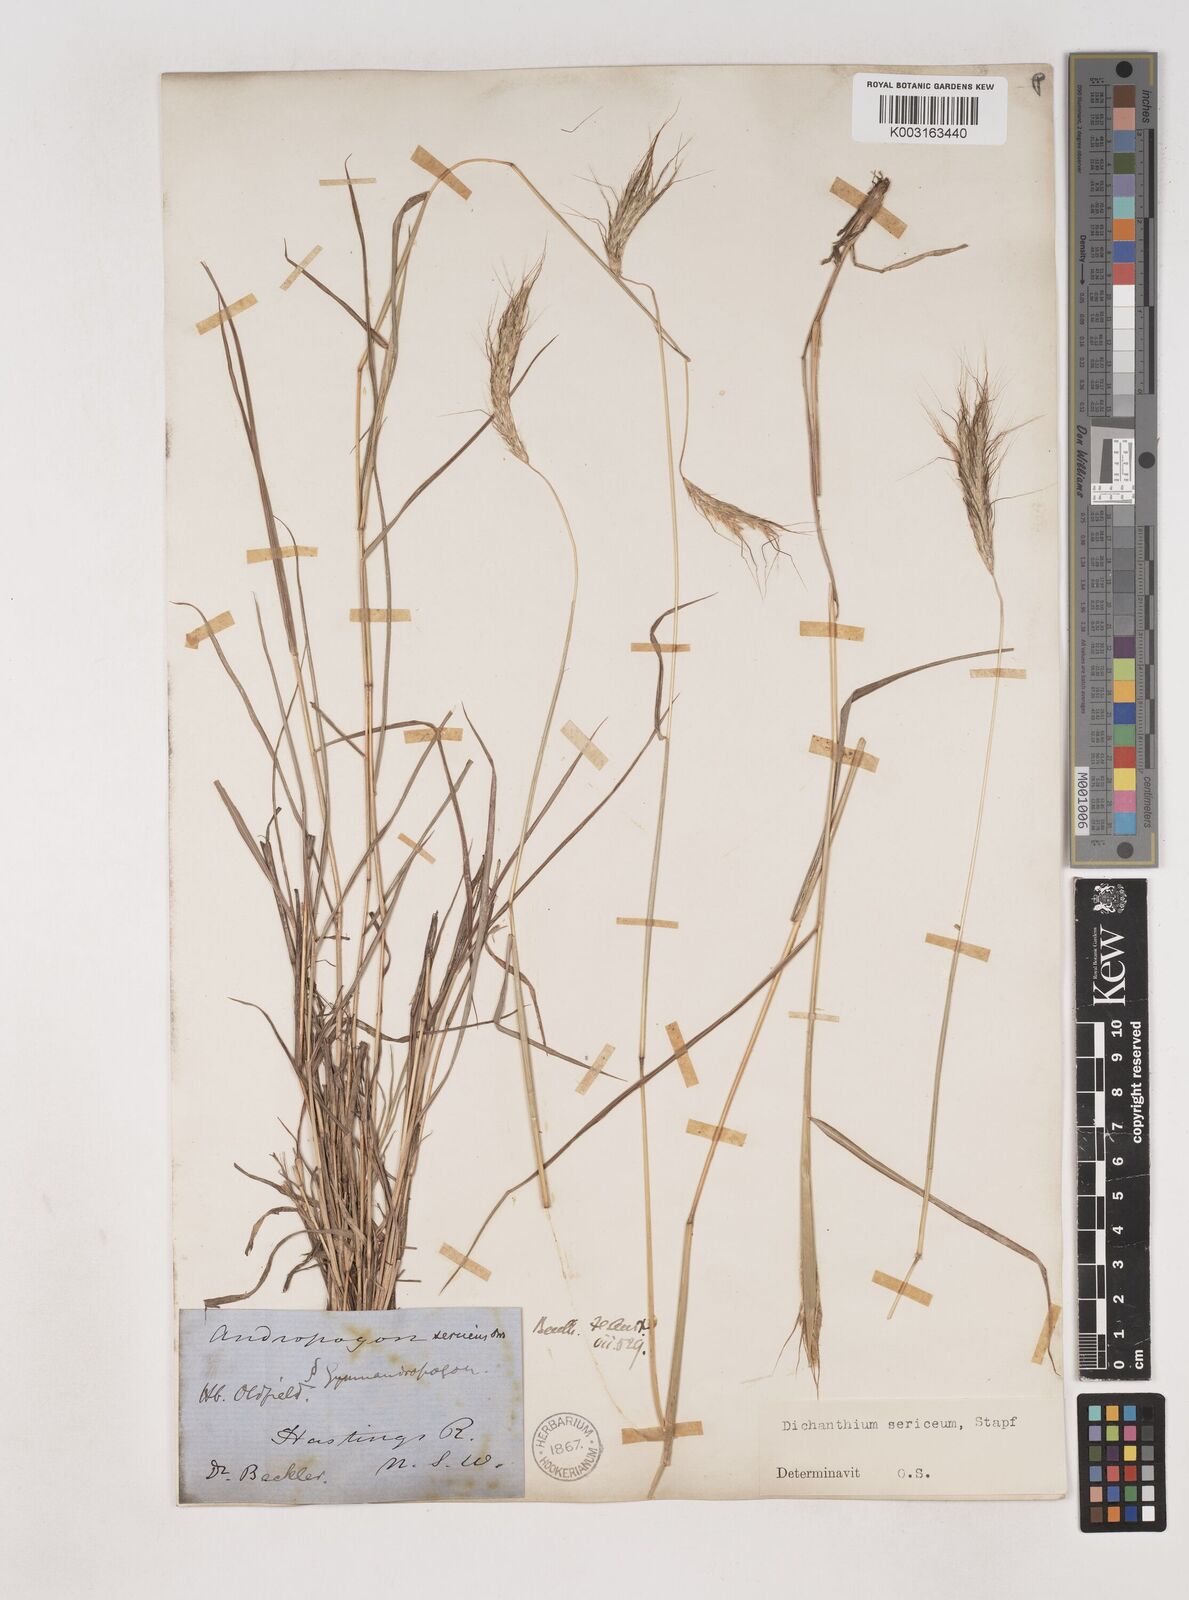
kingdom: Plantae
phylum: Tracheophyta
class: Liliopsida
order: Poales
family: Poaceae
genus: Dichanthium
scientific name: Dichanthium sericeum
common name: Silky bluestem
